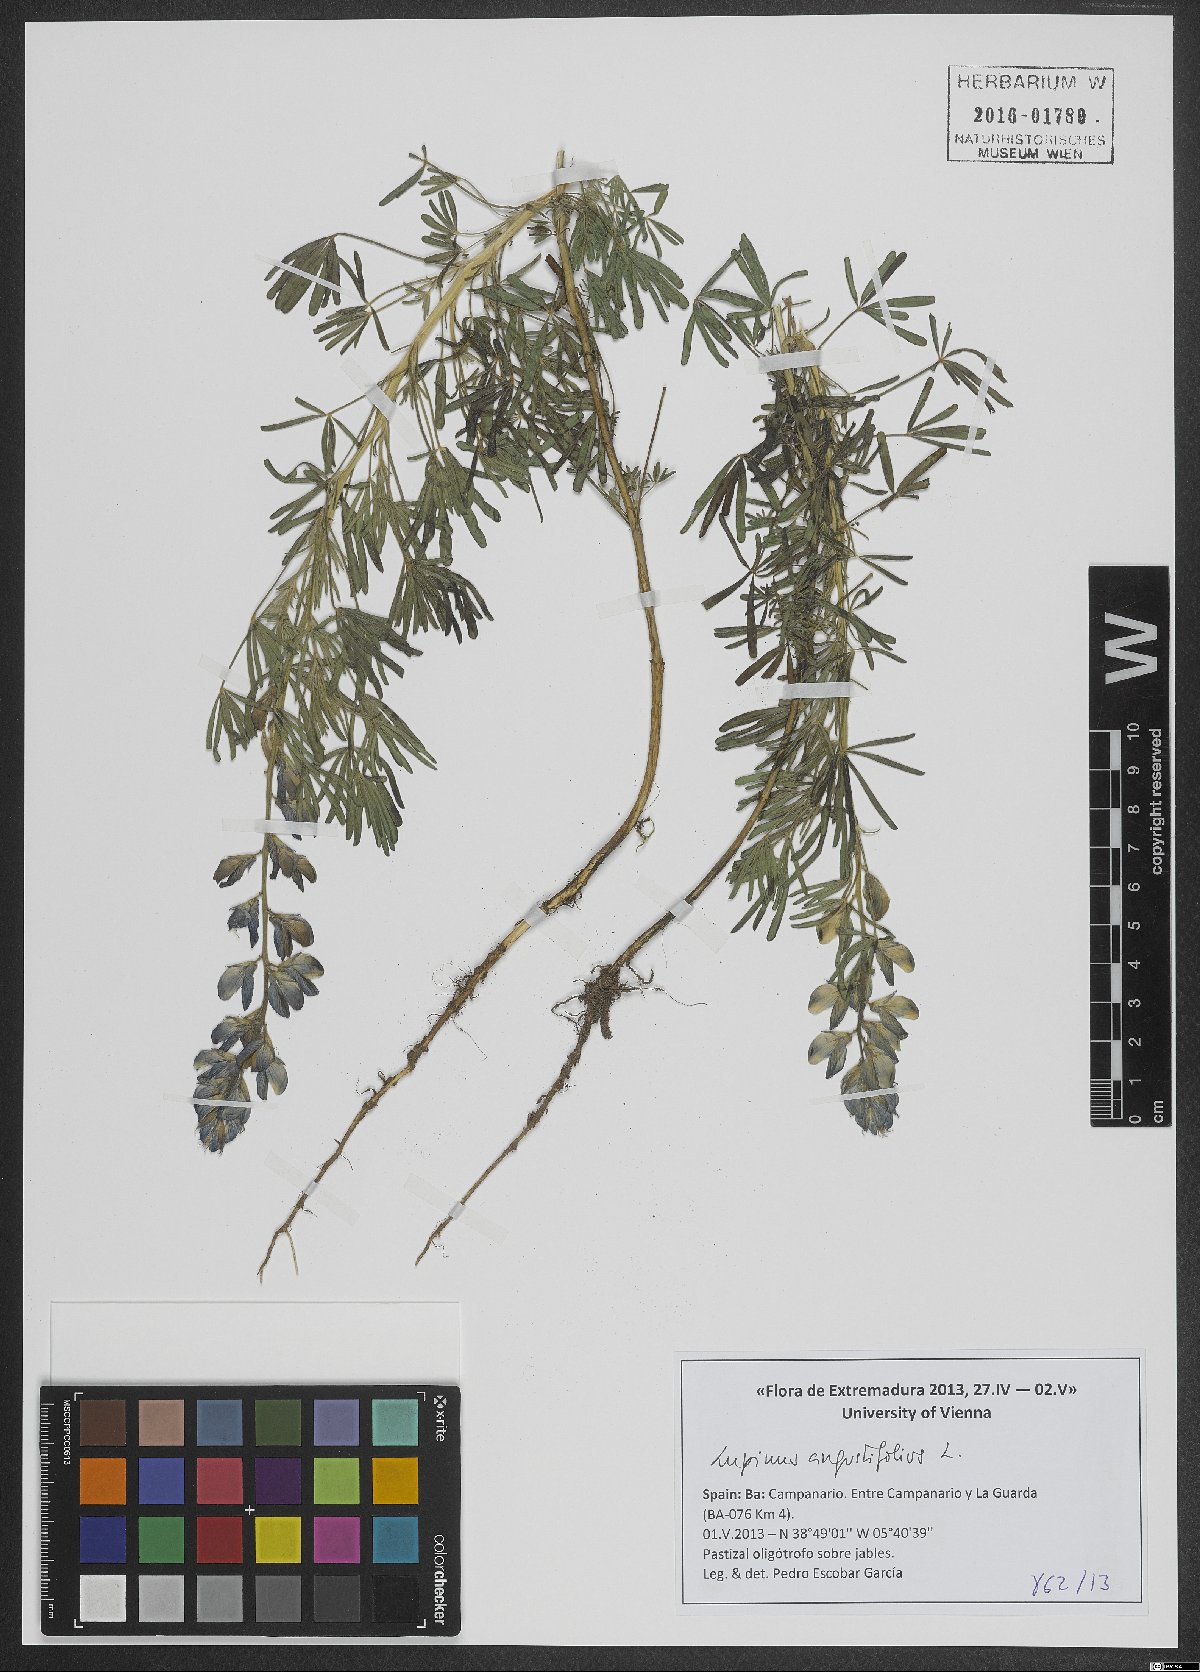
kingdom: Plantae
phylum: Tracheophyta
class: Magnoliopsida
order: Fabales
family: Fabaceae
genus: Lupinus
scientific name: Lupinus angustifolius
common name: Narrow-leaved lupin
